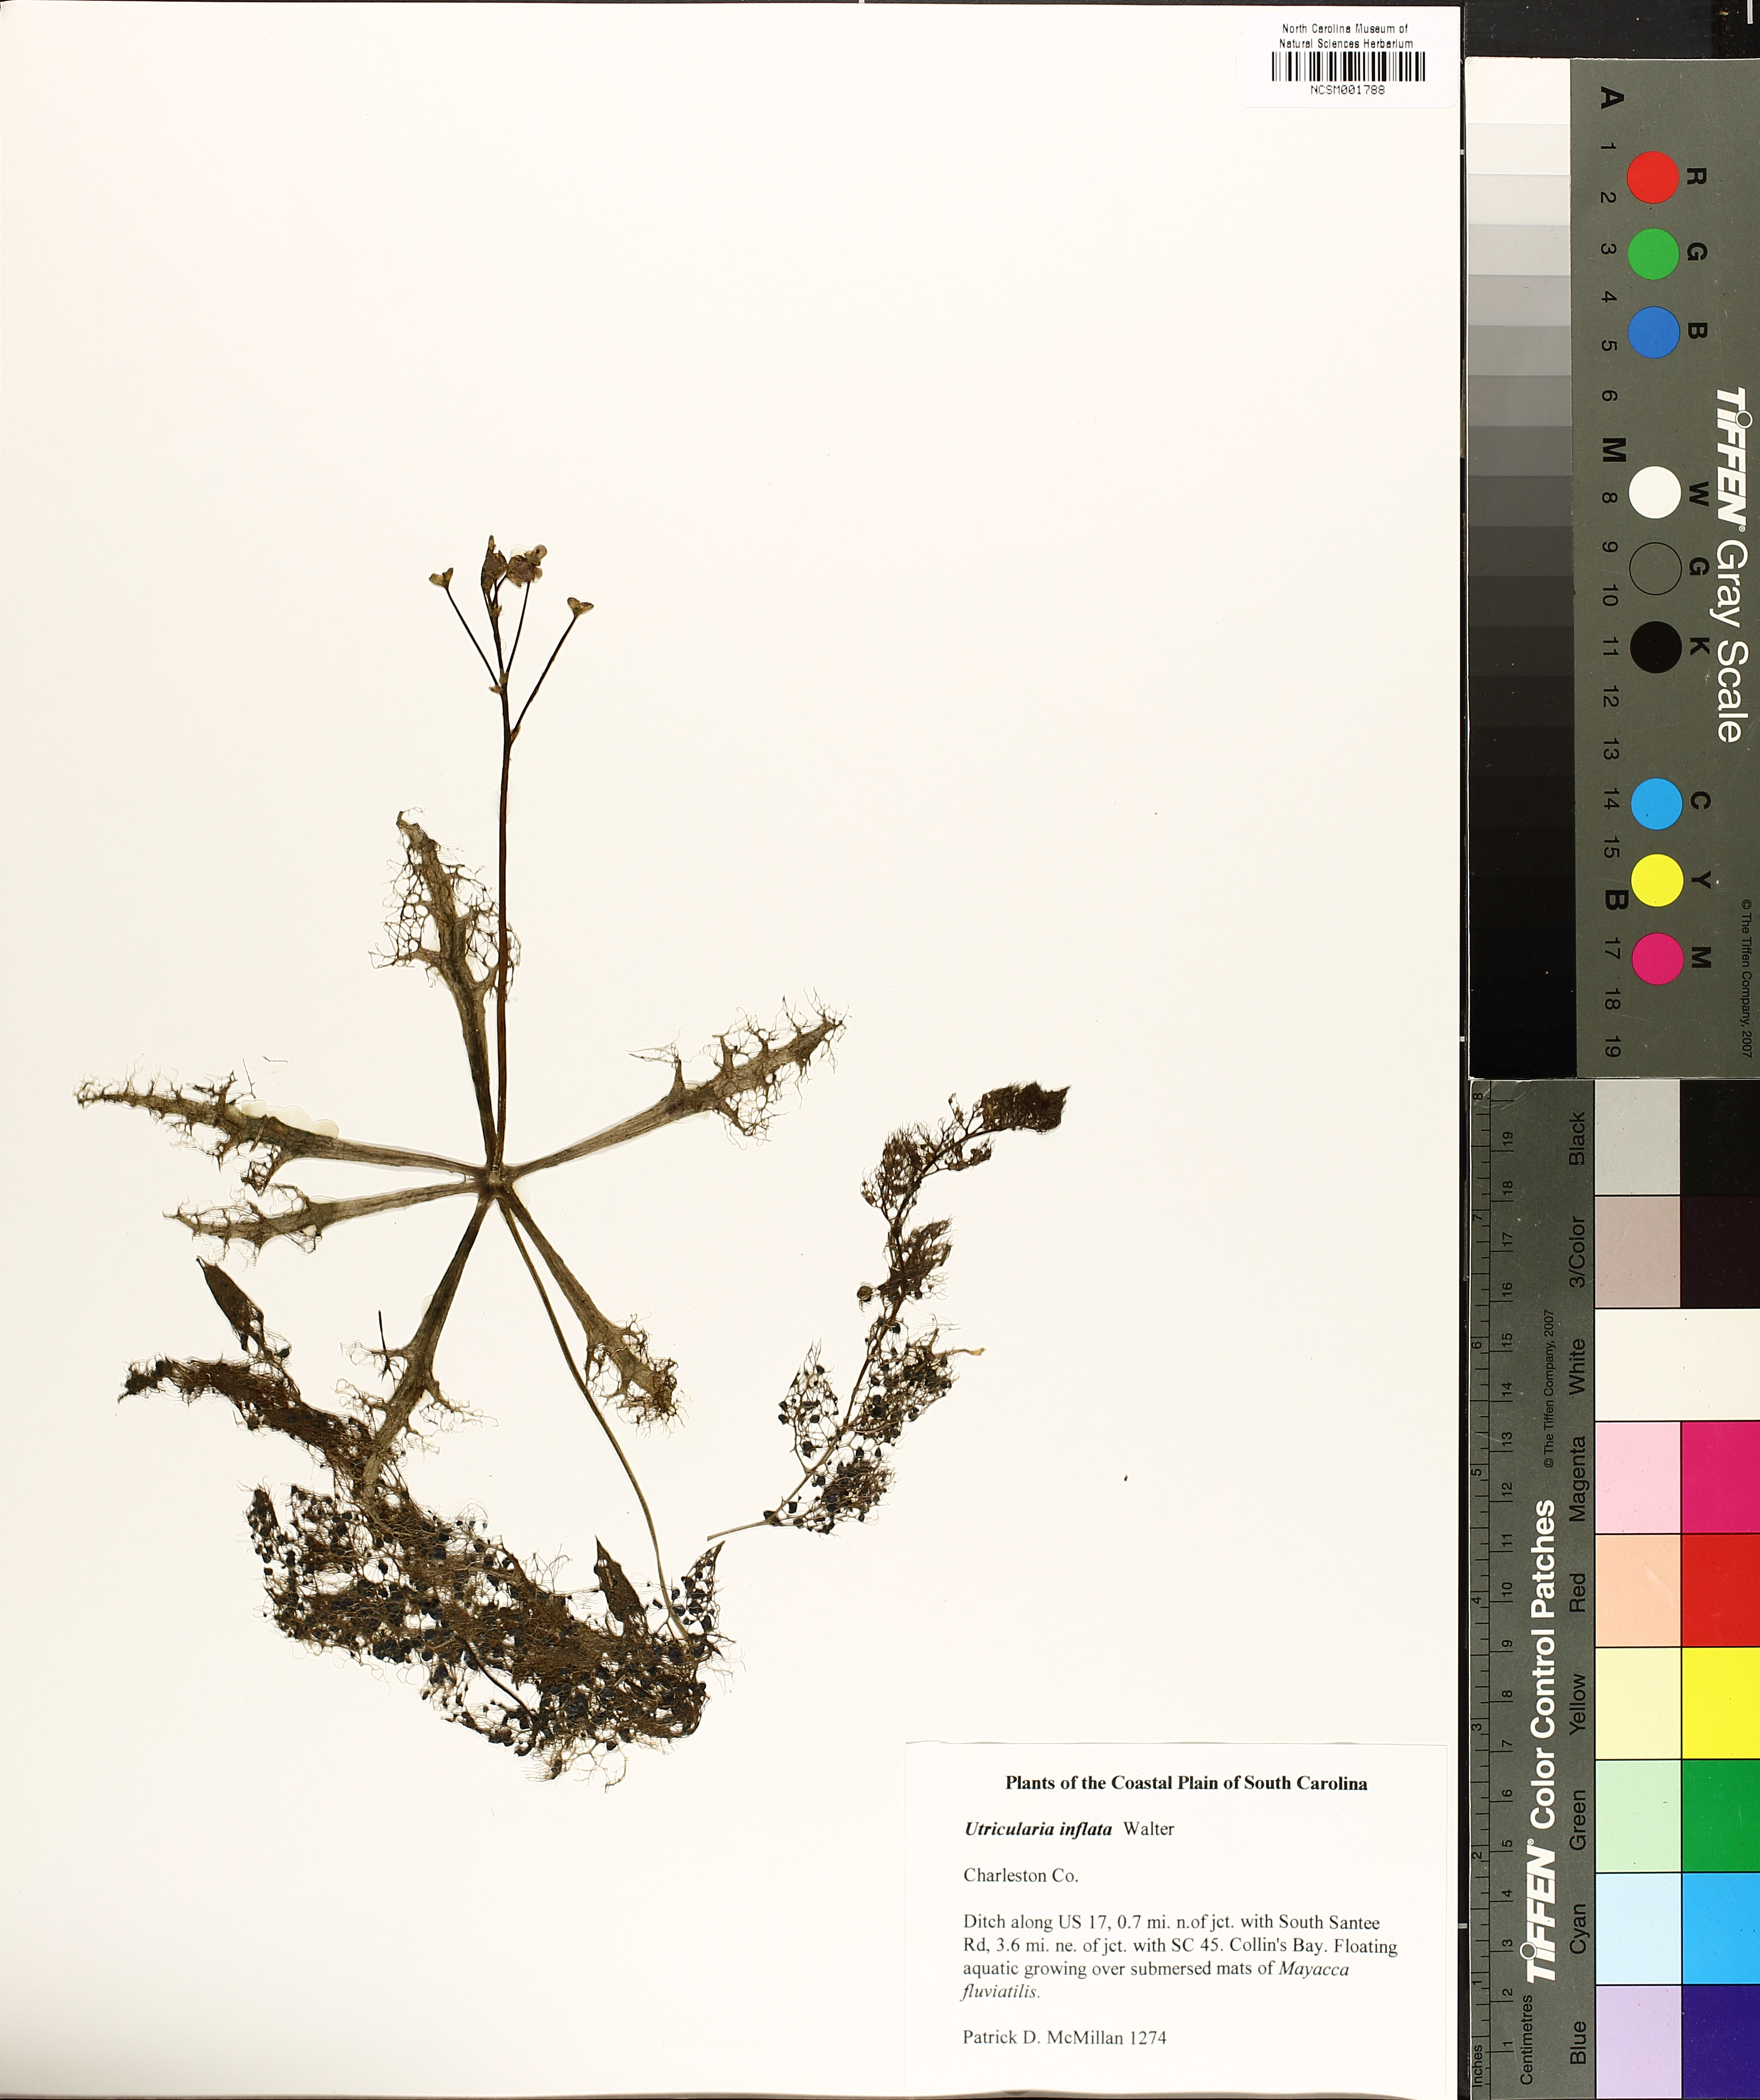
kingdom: Plantae
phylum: Tracheophyta
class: Magnoliopsida
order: Lamiales
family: Lentibulariaceae
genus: Utricularia
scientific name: Utricularia inflata
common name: Floating bladderwort
